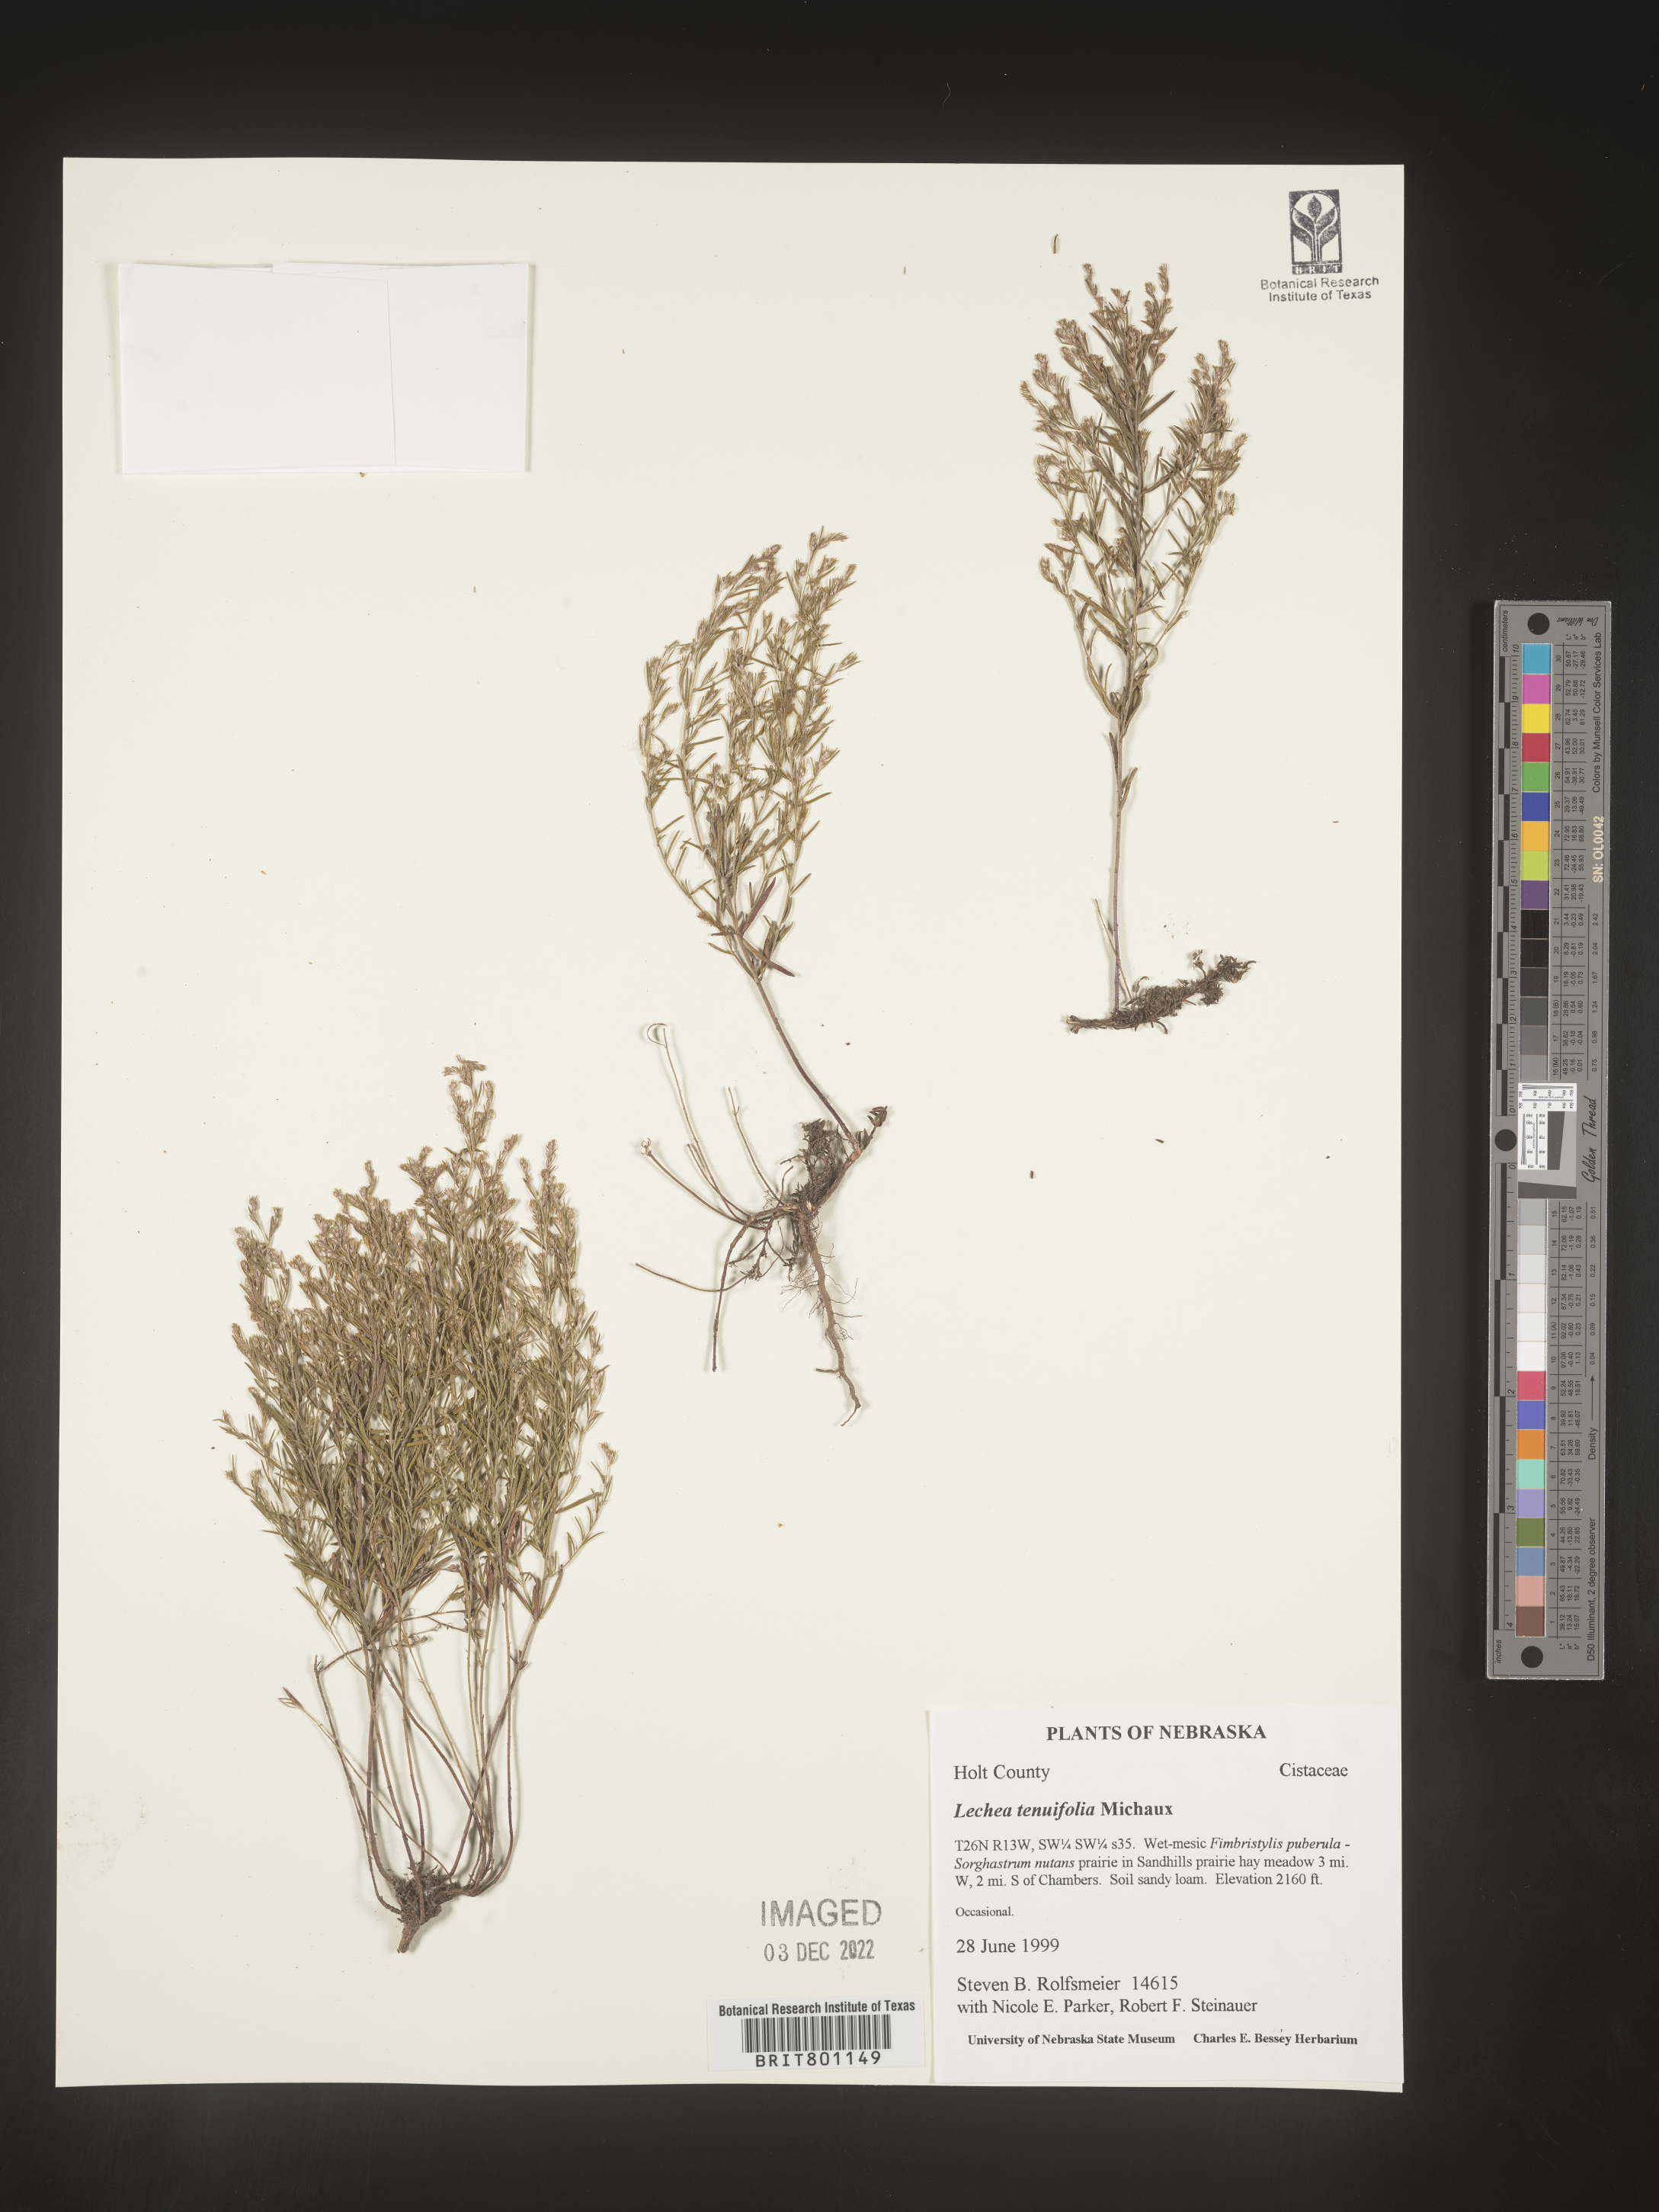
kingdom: Plantae
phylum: Tracheophyta
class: Magnoliopsida
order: Malvales
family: Cistaceae
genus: Lechea
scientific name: Lechea tenuifolia
